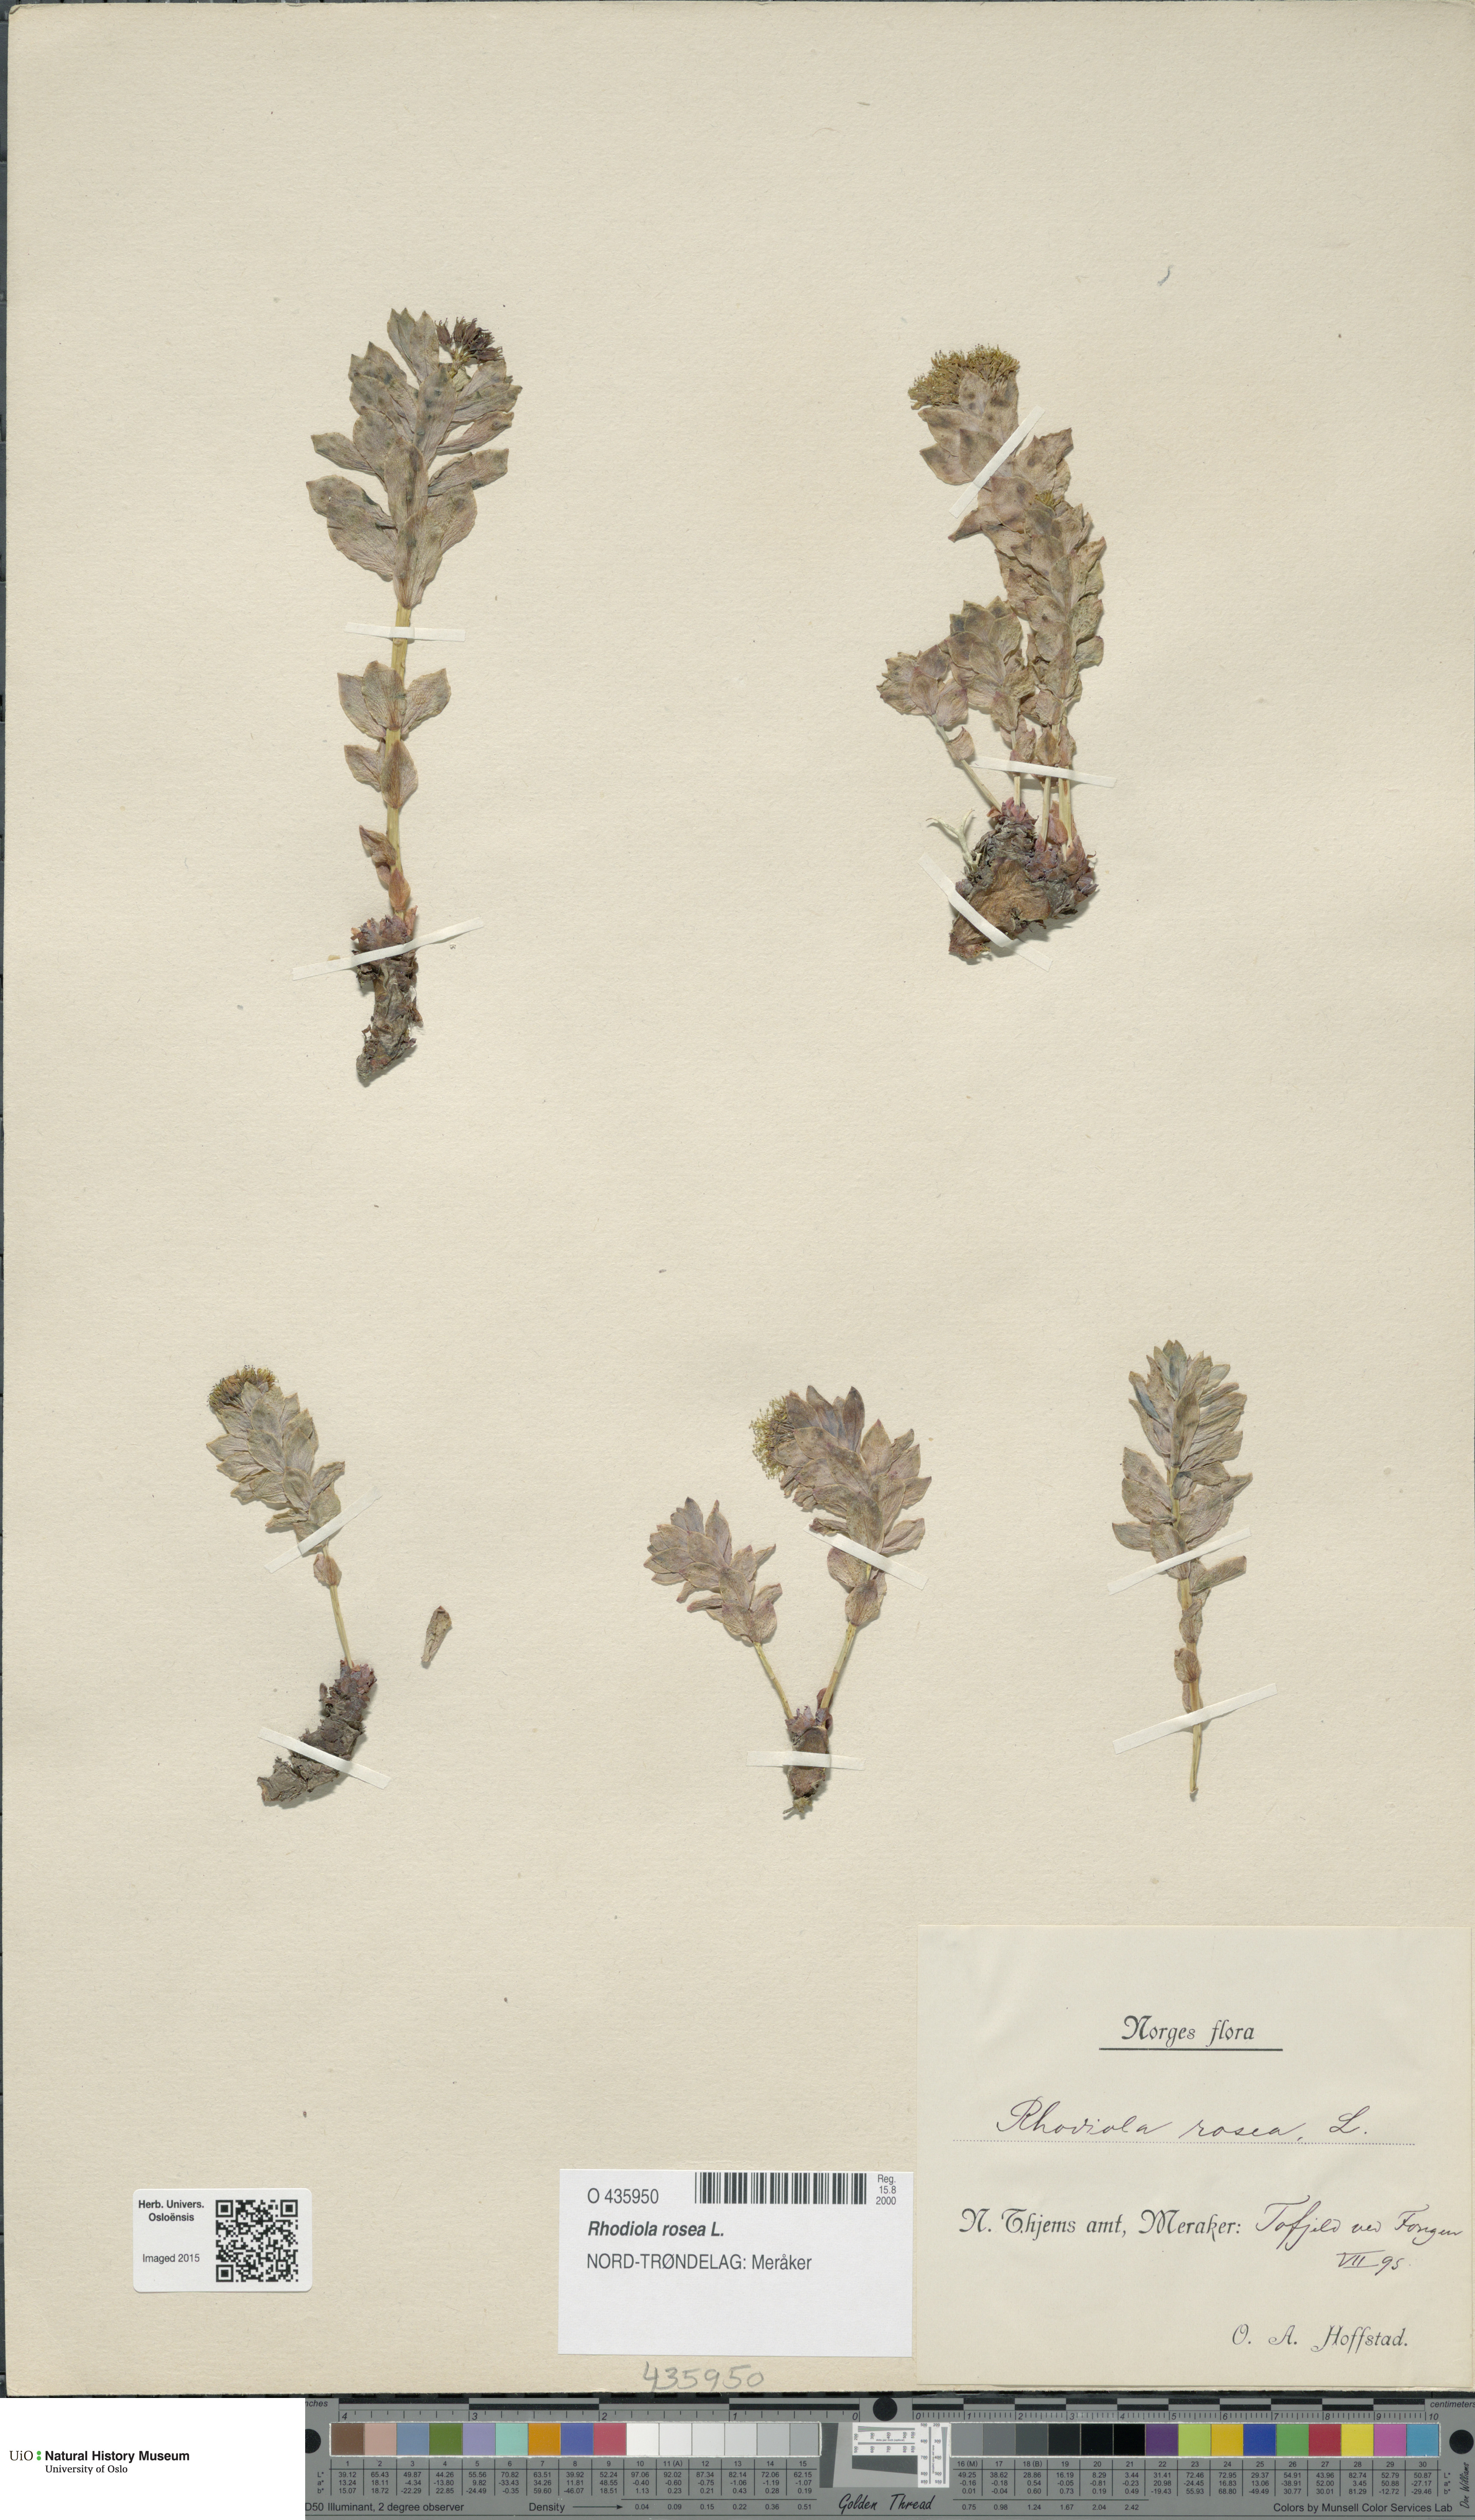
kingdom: Plantae
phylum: Tracheophyta
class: Magnoliopsida
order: Saxifragales
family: Crassulaceae
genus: Rhodiola
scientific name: Rhodiola rosea
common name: Roseroot
